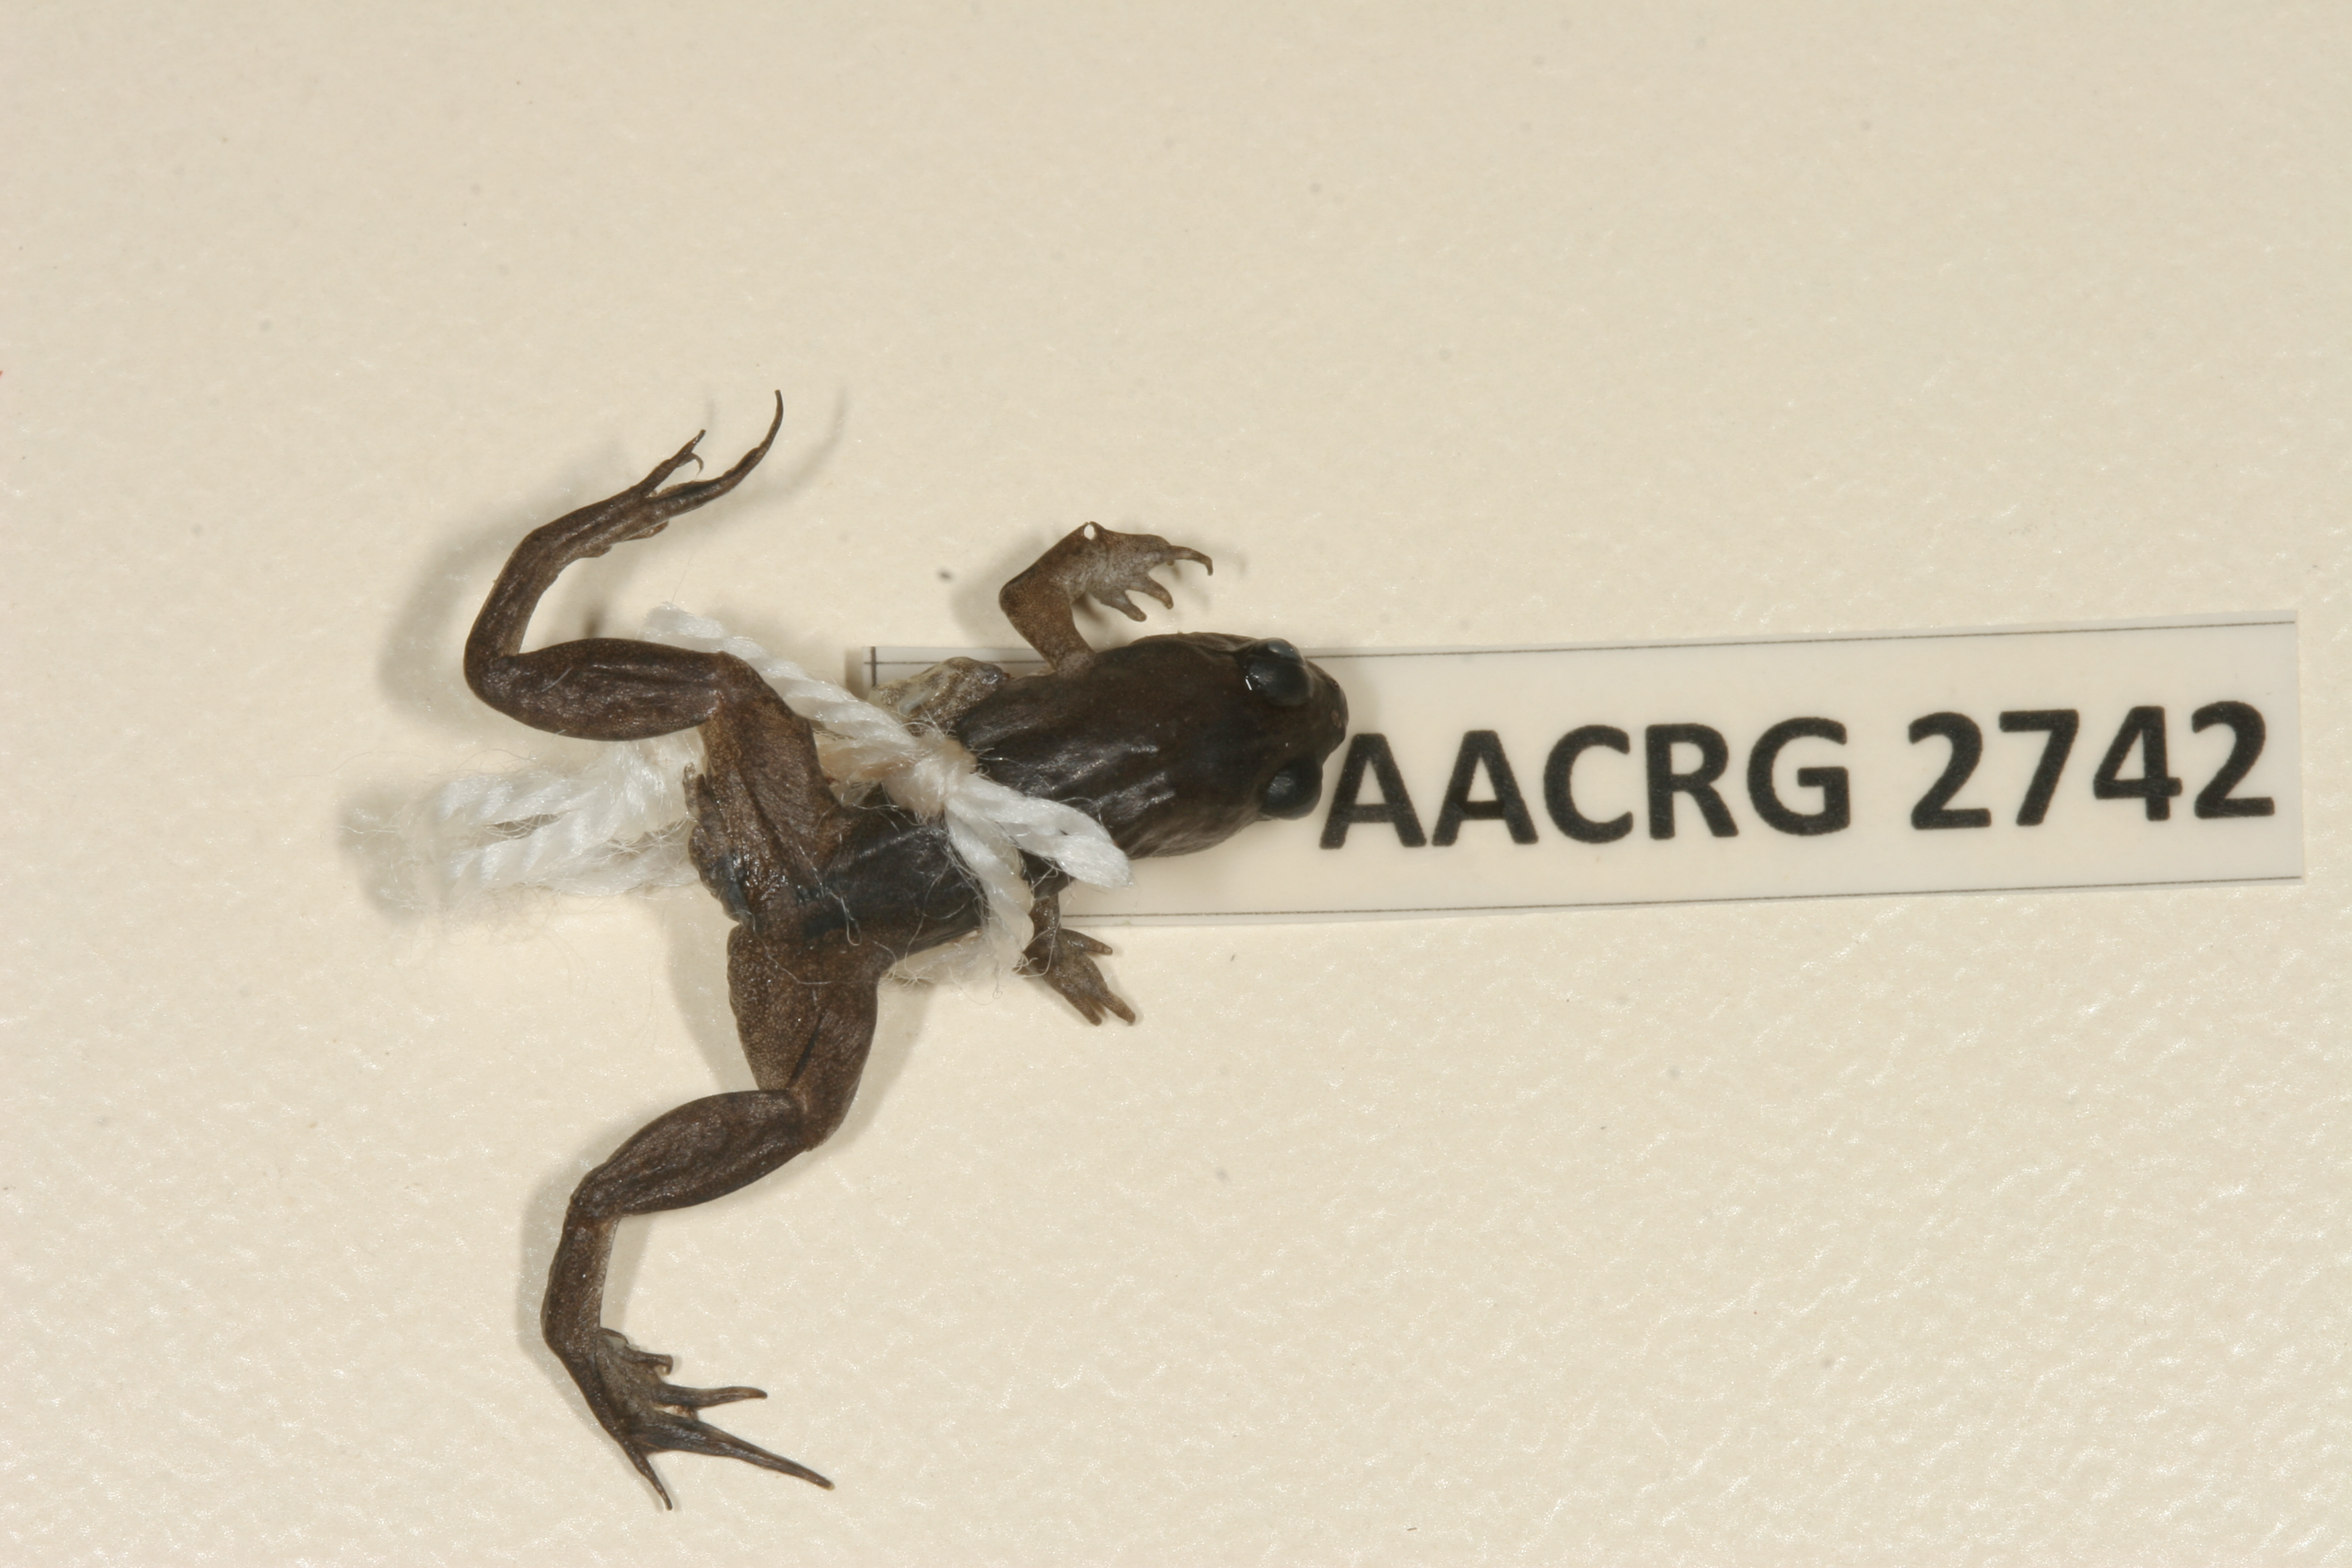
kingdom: Animalia
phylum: Chordata
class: Amphibia
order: Anura
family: Pyxicephalidae
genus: Microbatrachella
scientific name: Microbatrachella capensis
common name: Cape flats frog
